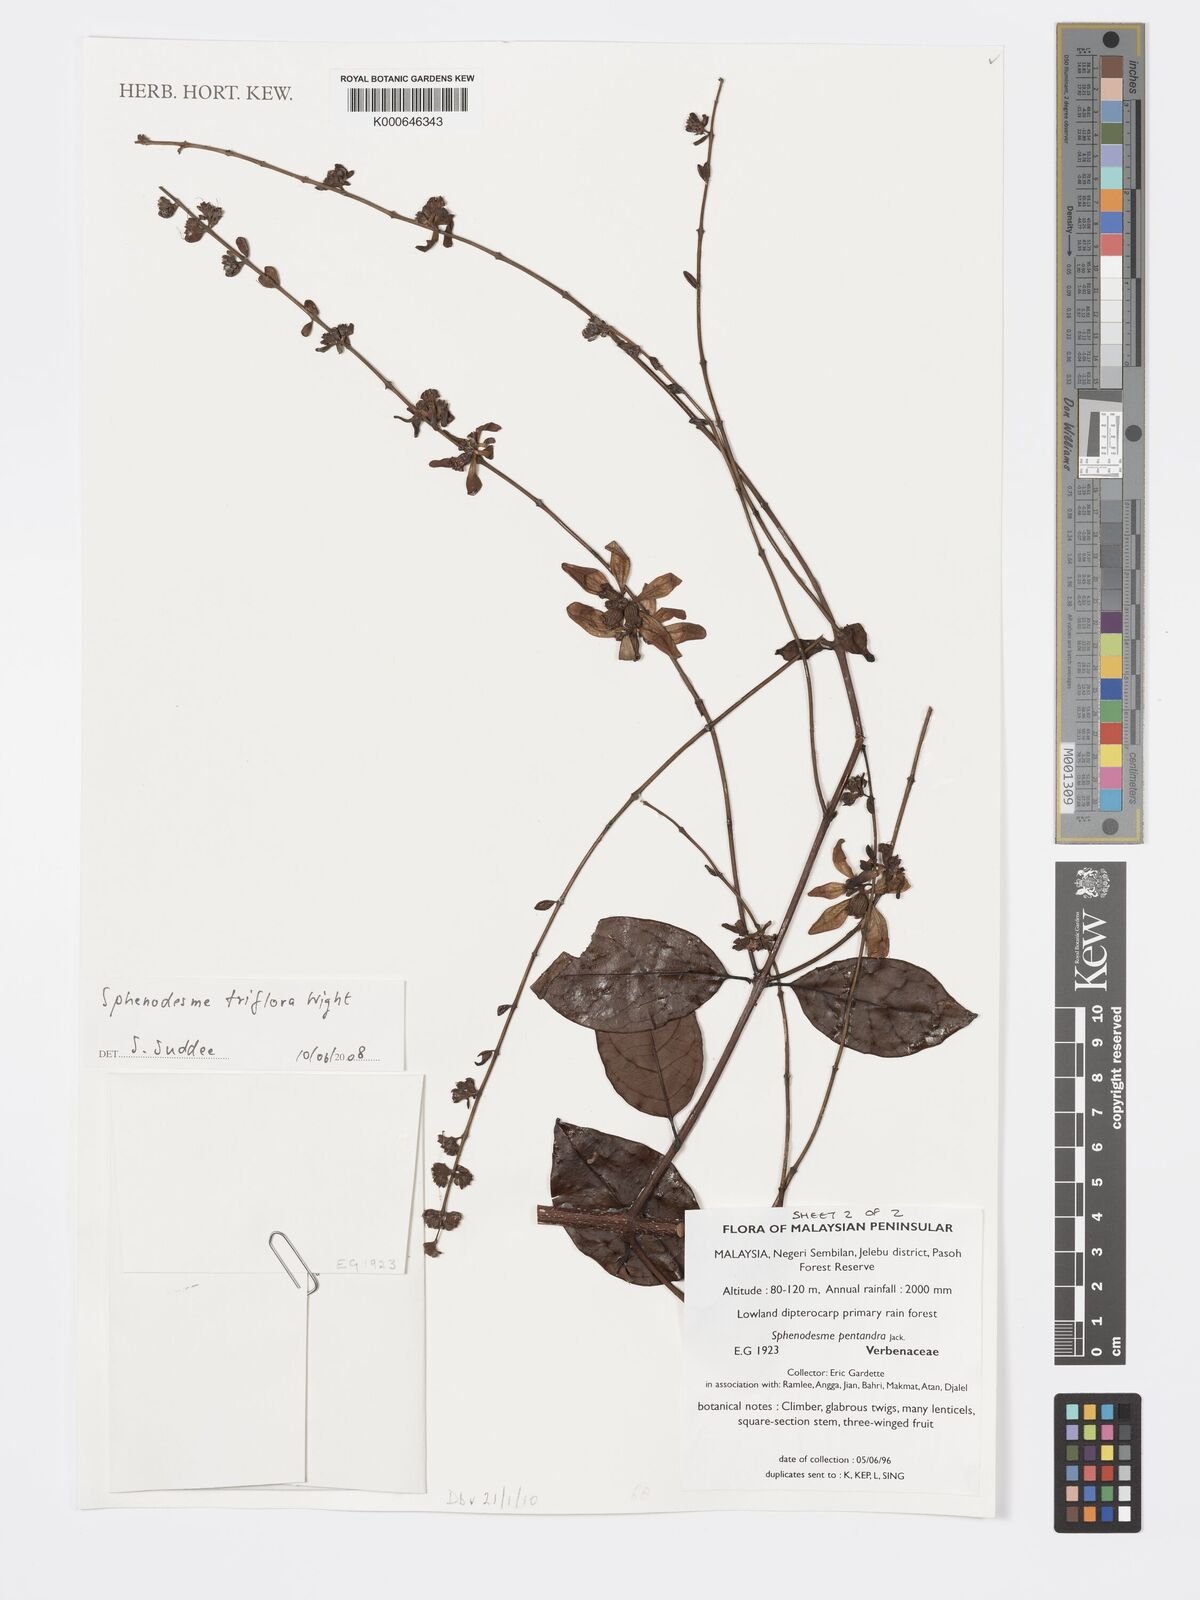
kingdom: Plantae
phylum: Tracheophyta
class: Magnoliopsida
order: Lamiales
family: Lamiaceae
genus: Sphenodesme
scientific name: Sphenodesme
